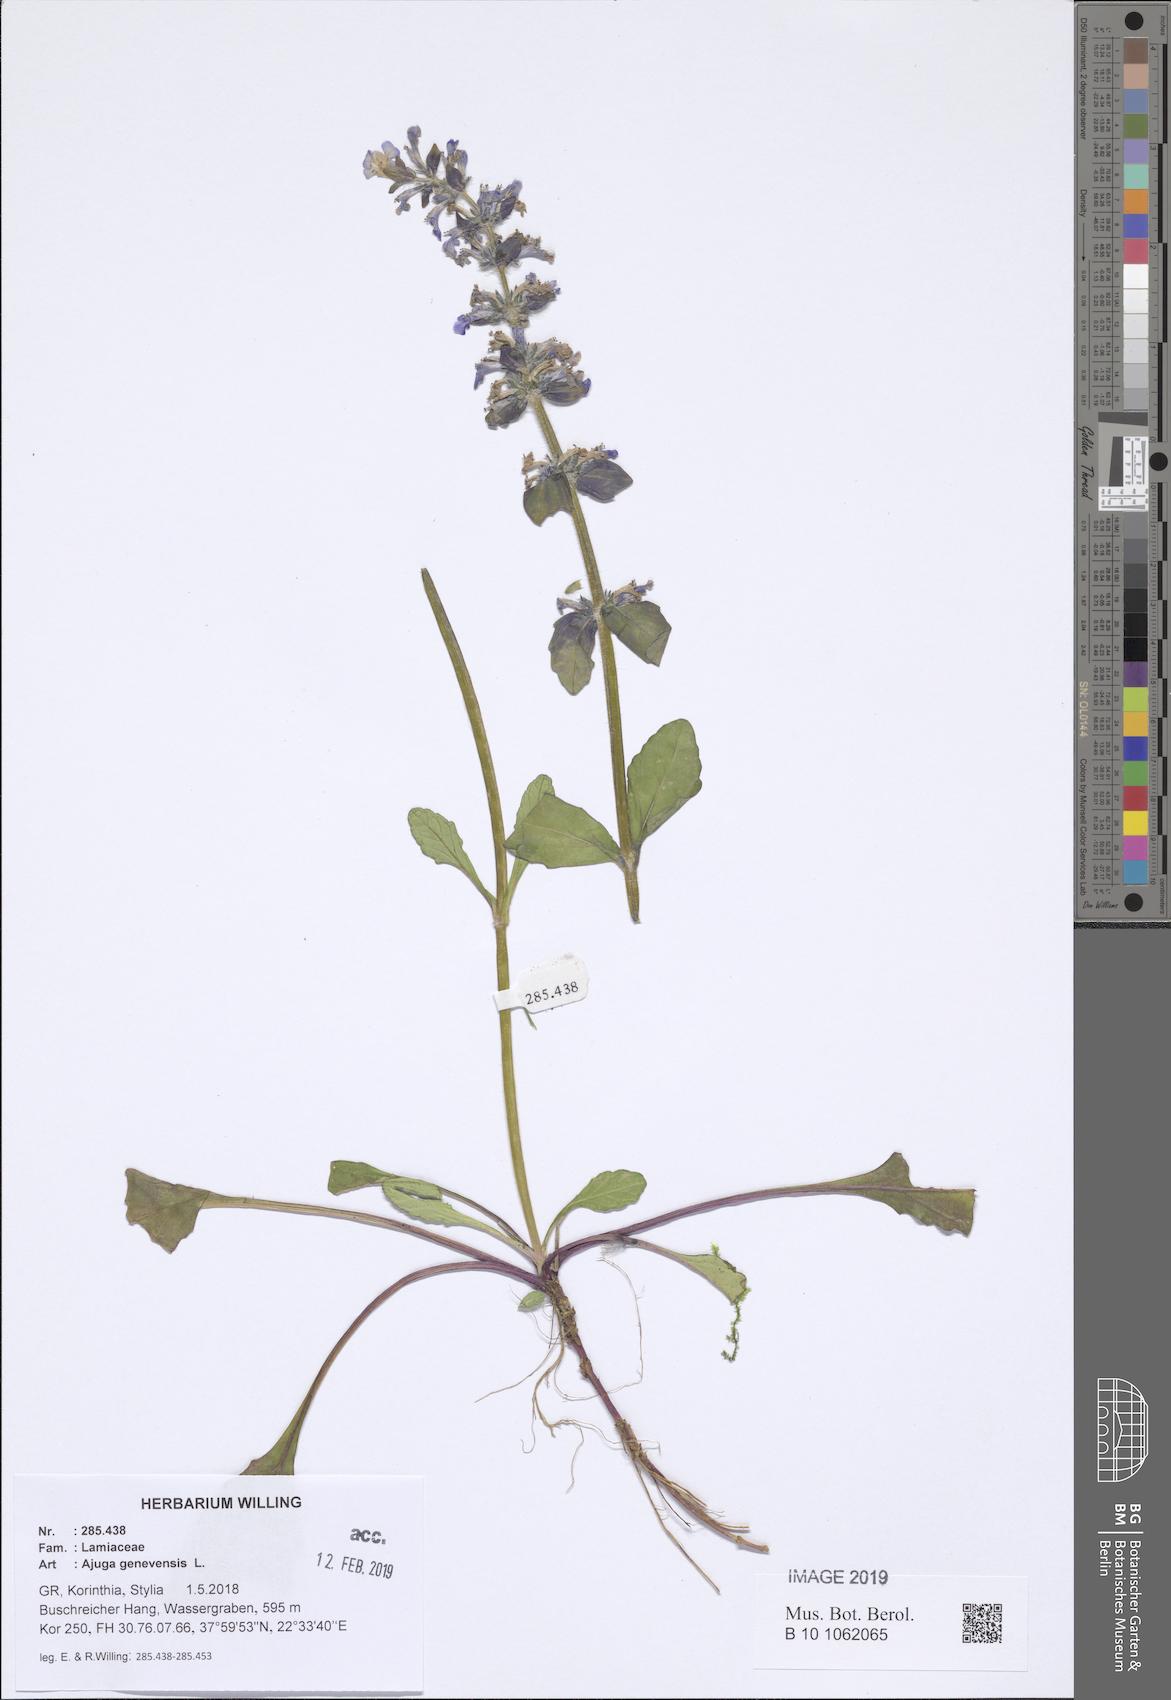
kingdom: Plantae
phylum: Tracheophyta
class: Magnoliopsida
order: Lamiales
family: Lamiaceae
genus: Ajuga
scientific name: Ajuga reptans
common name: Bugle
